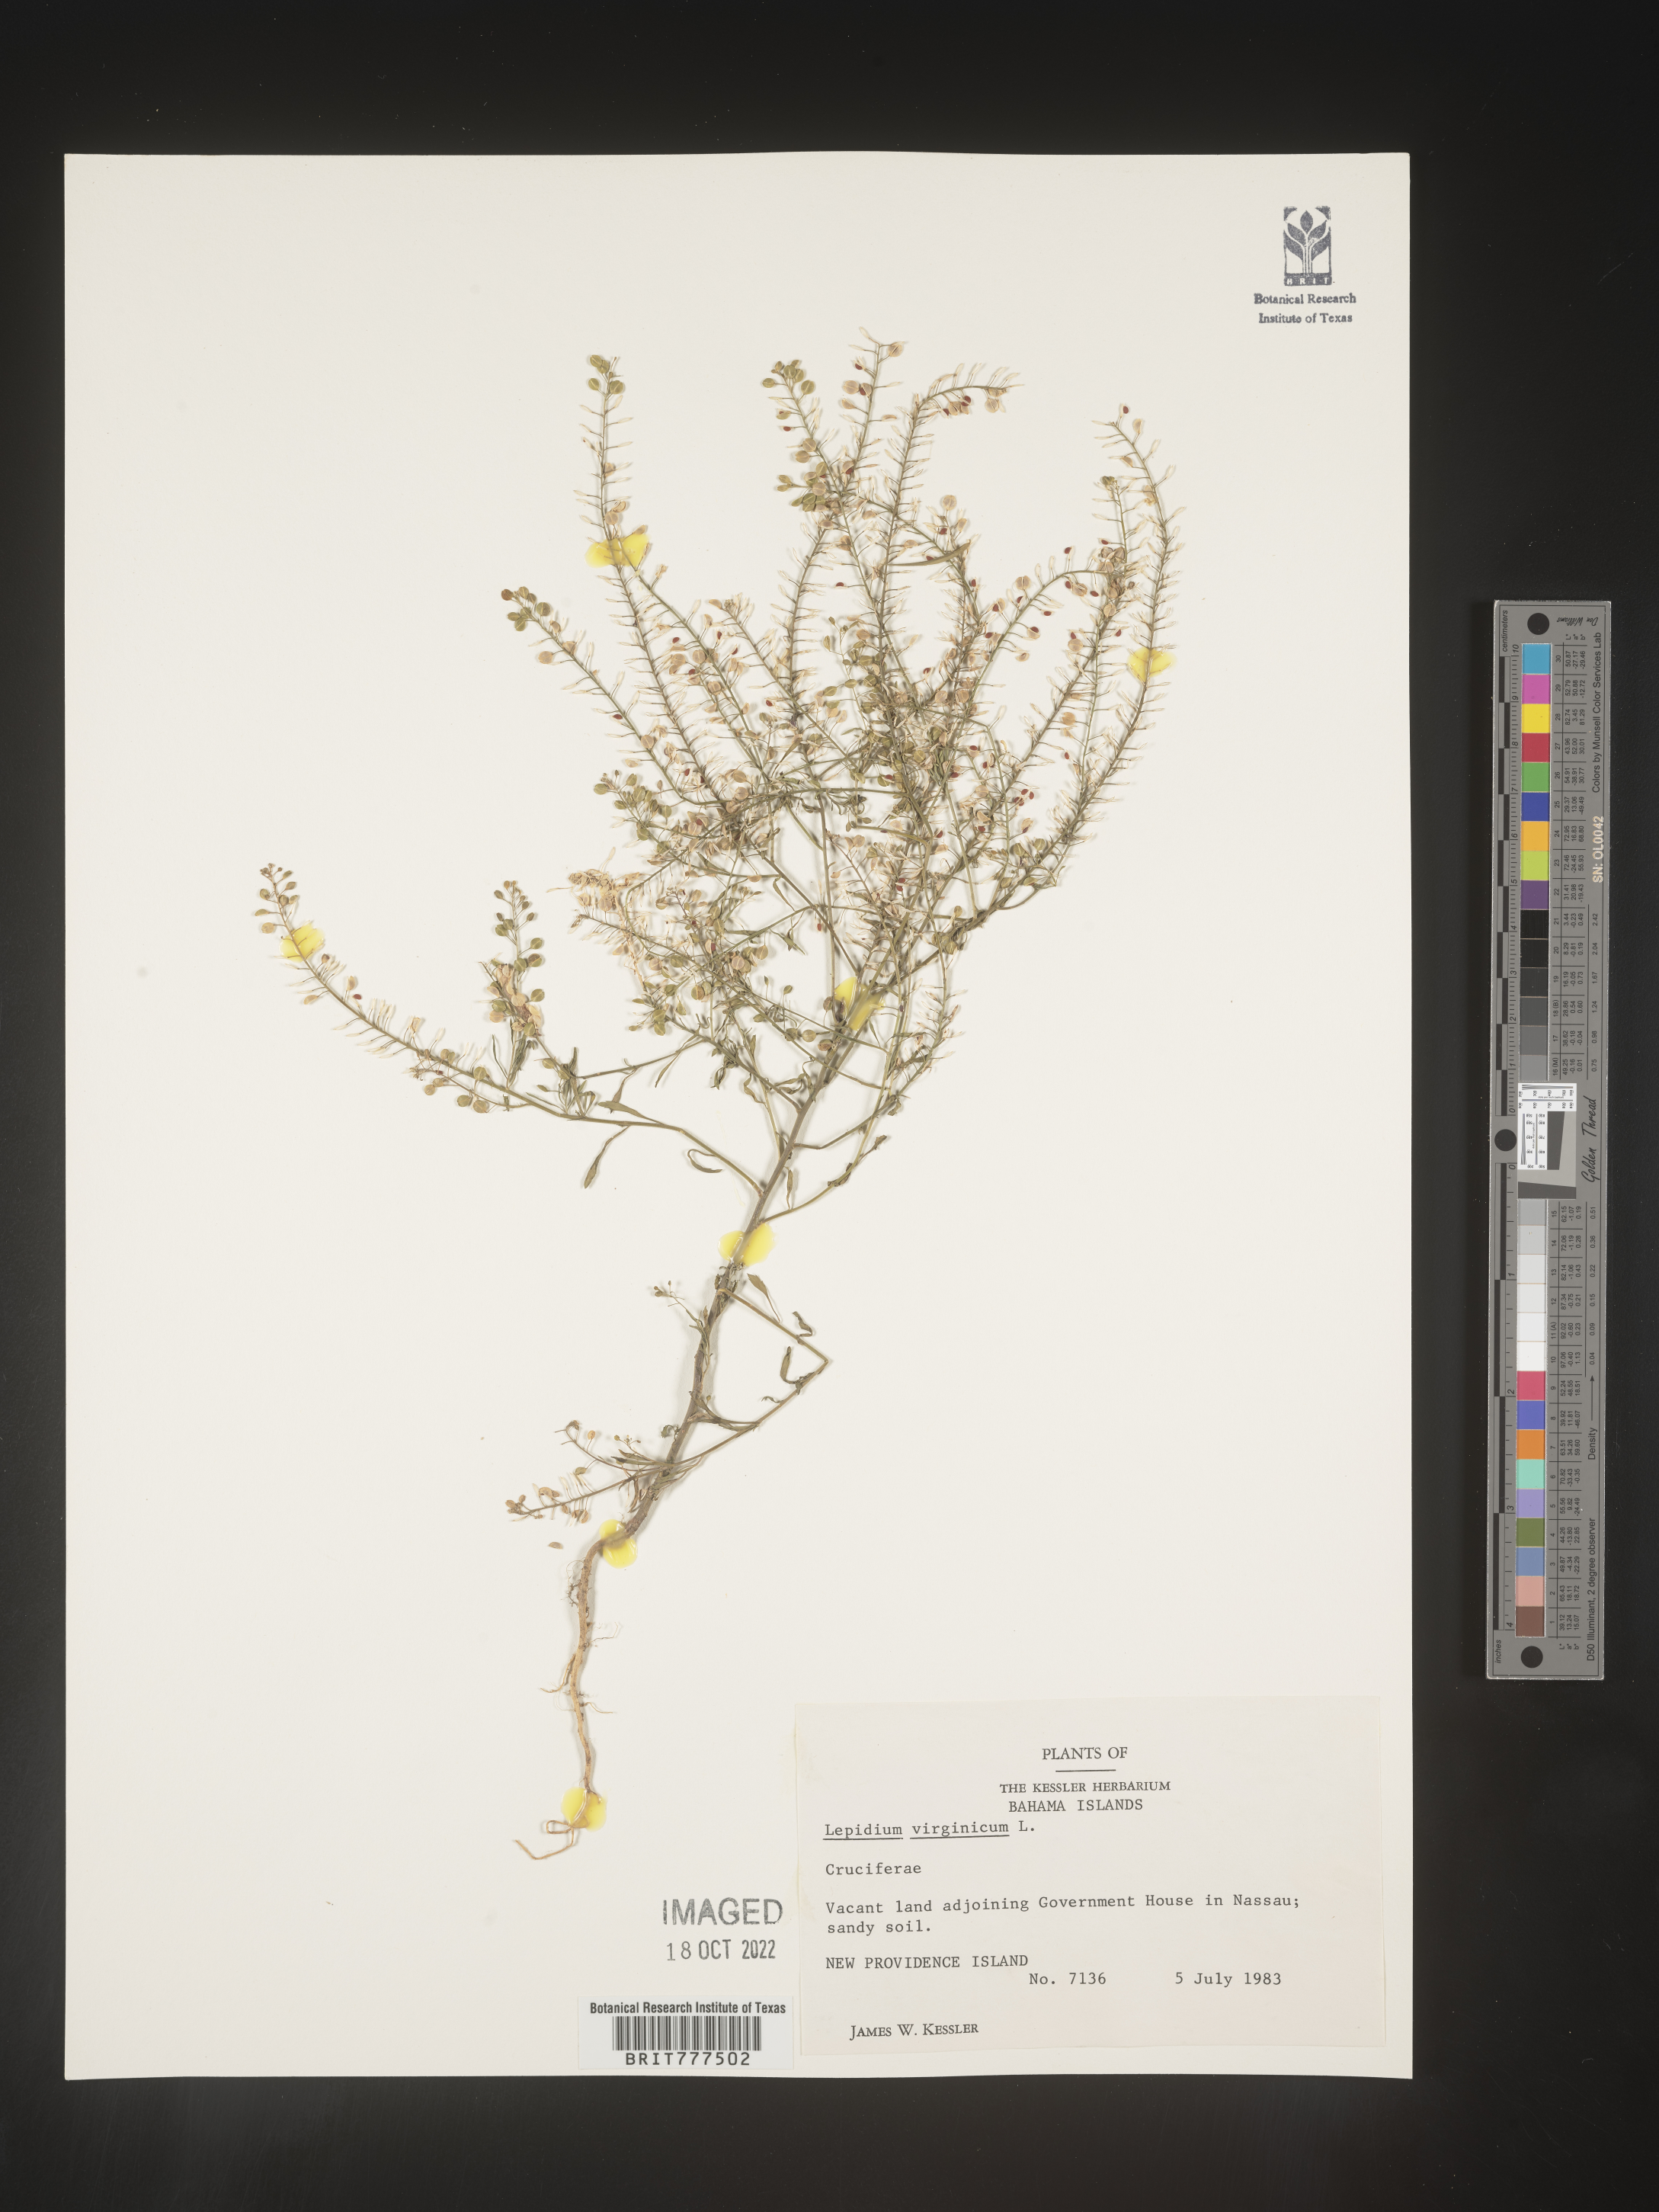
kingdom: Plantae
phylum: Tracheophyta
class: Magnoliopsida
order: Brassicales
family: Brassicaceae
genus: Lepidium
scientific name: Lepidium
